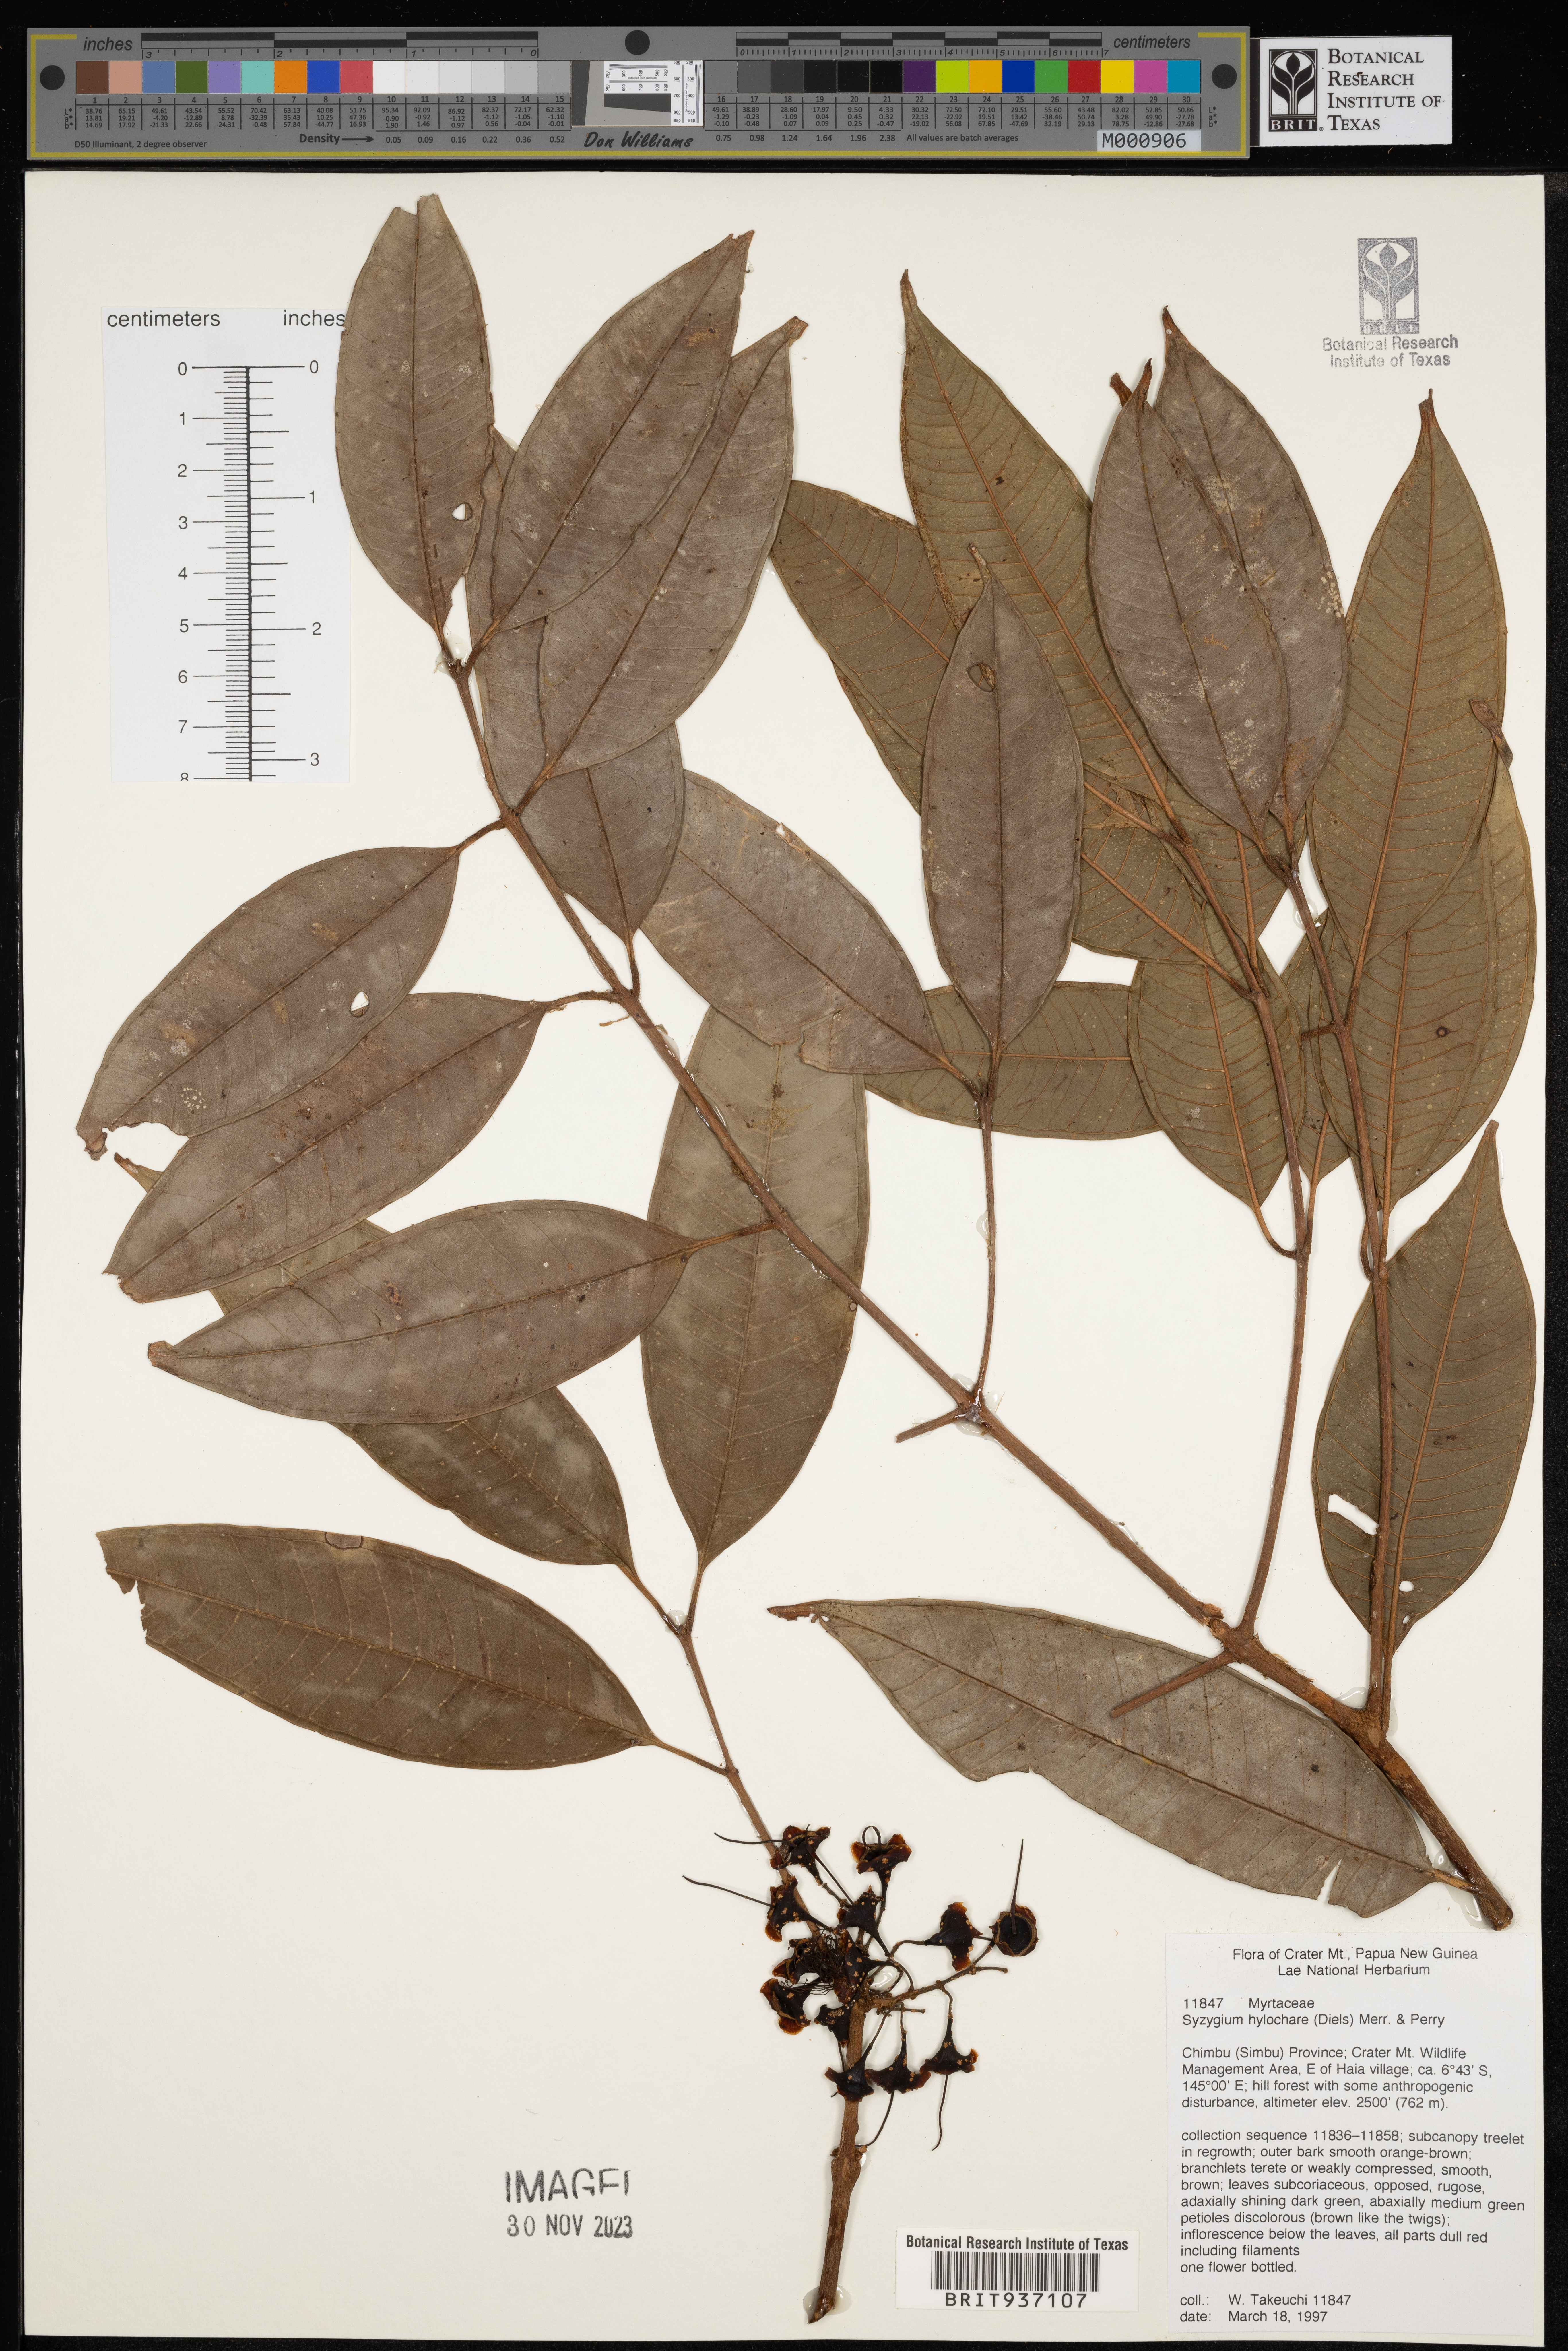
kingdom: Plantae
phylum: Tracheophyta
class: Magnoliopsida
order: Myrtales
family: Myrtaceae
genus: Syzygium
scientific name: Syzygium
